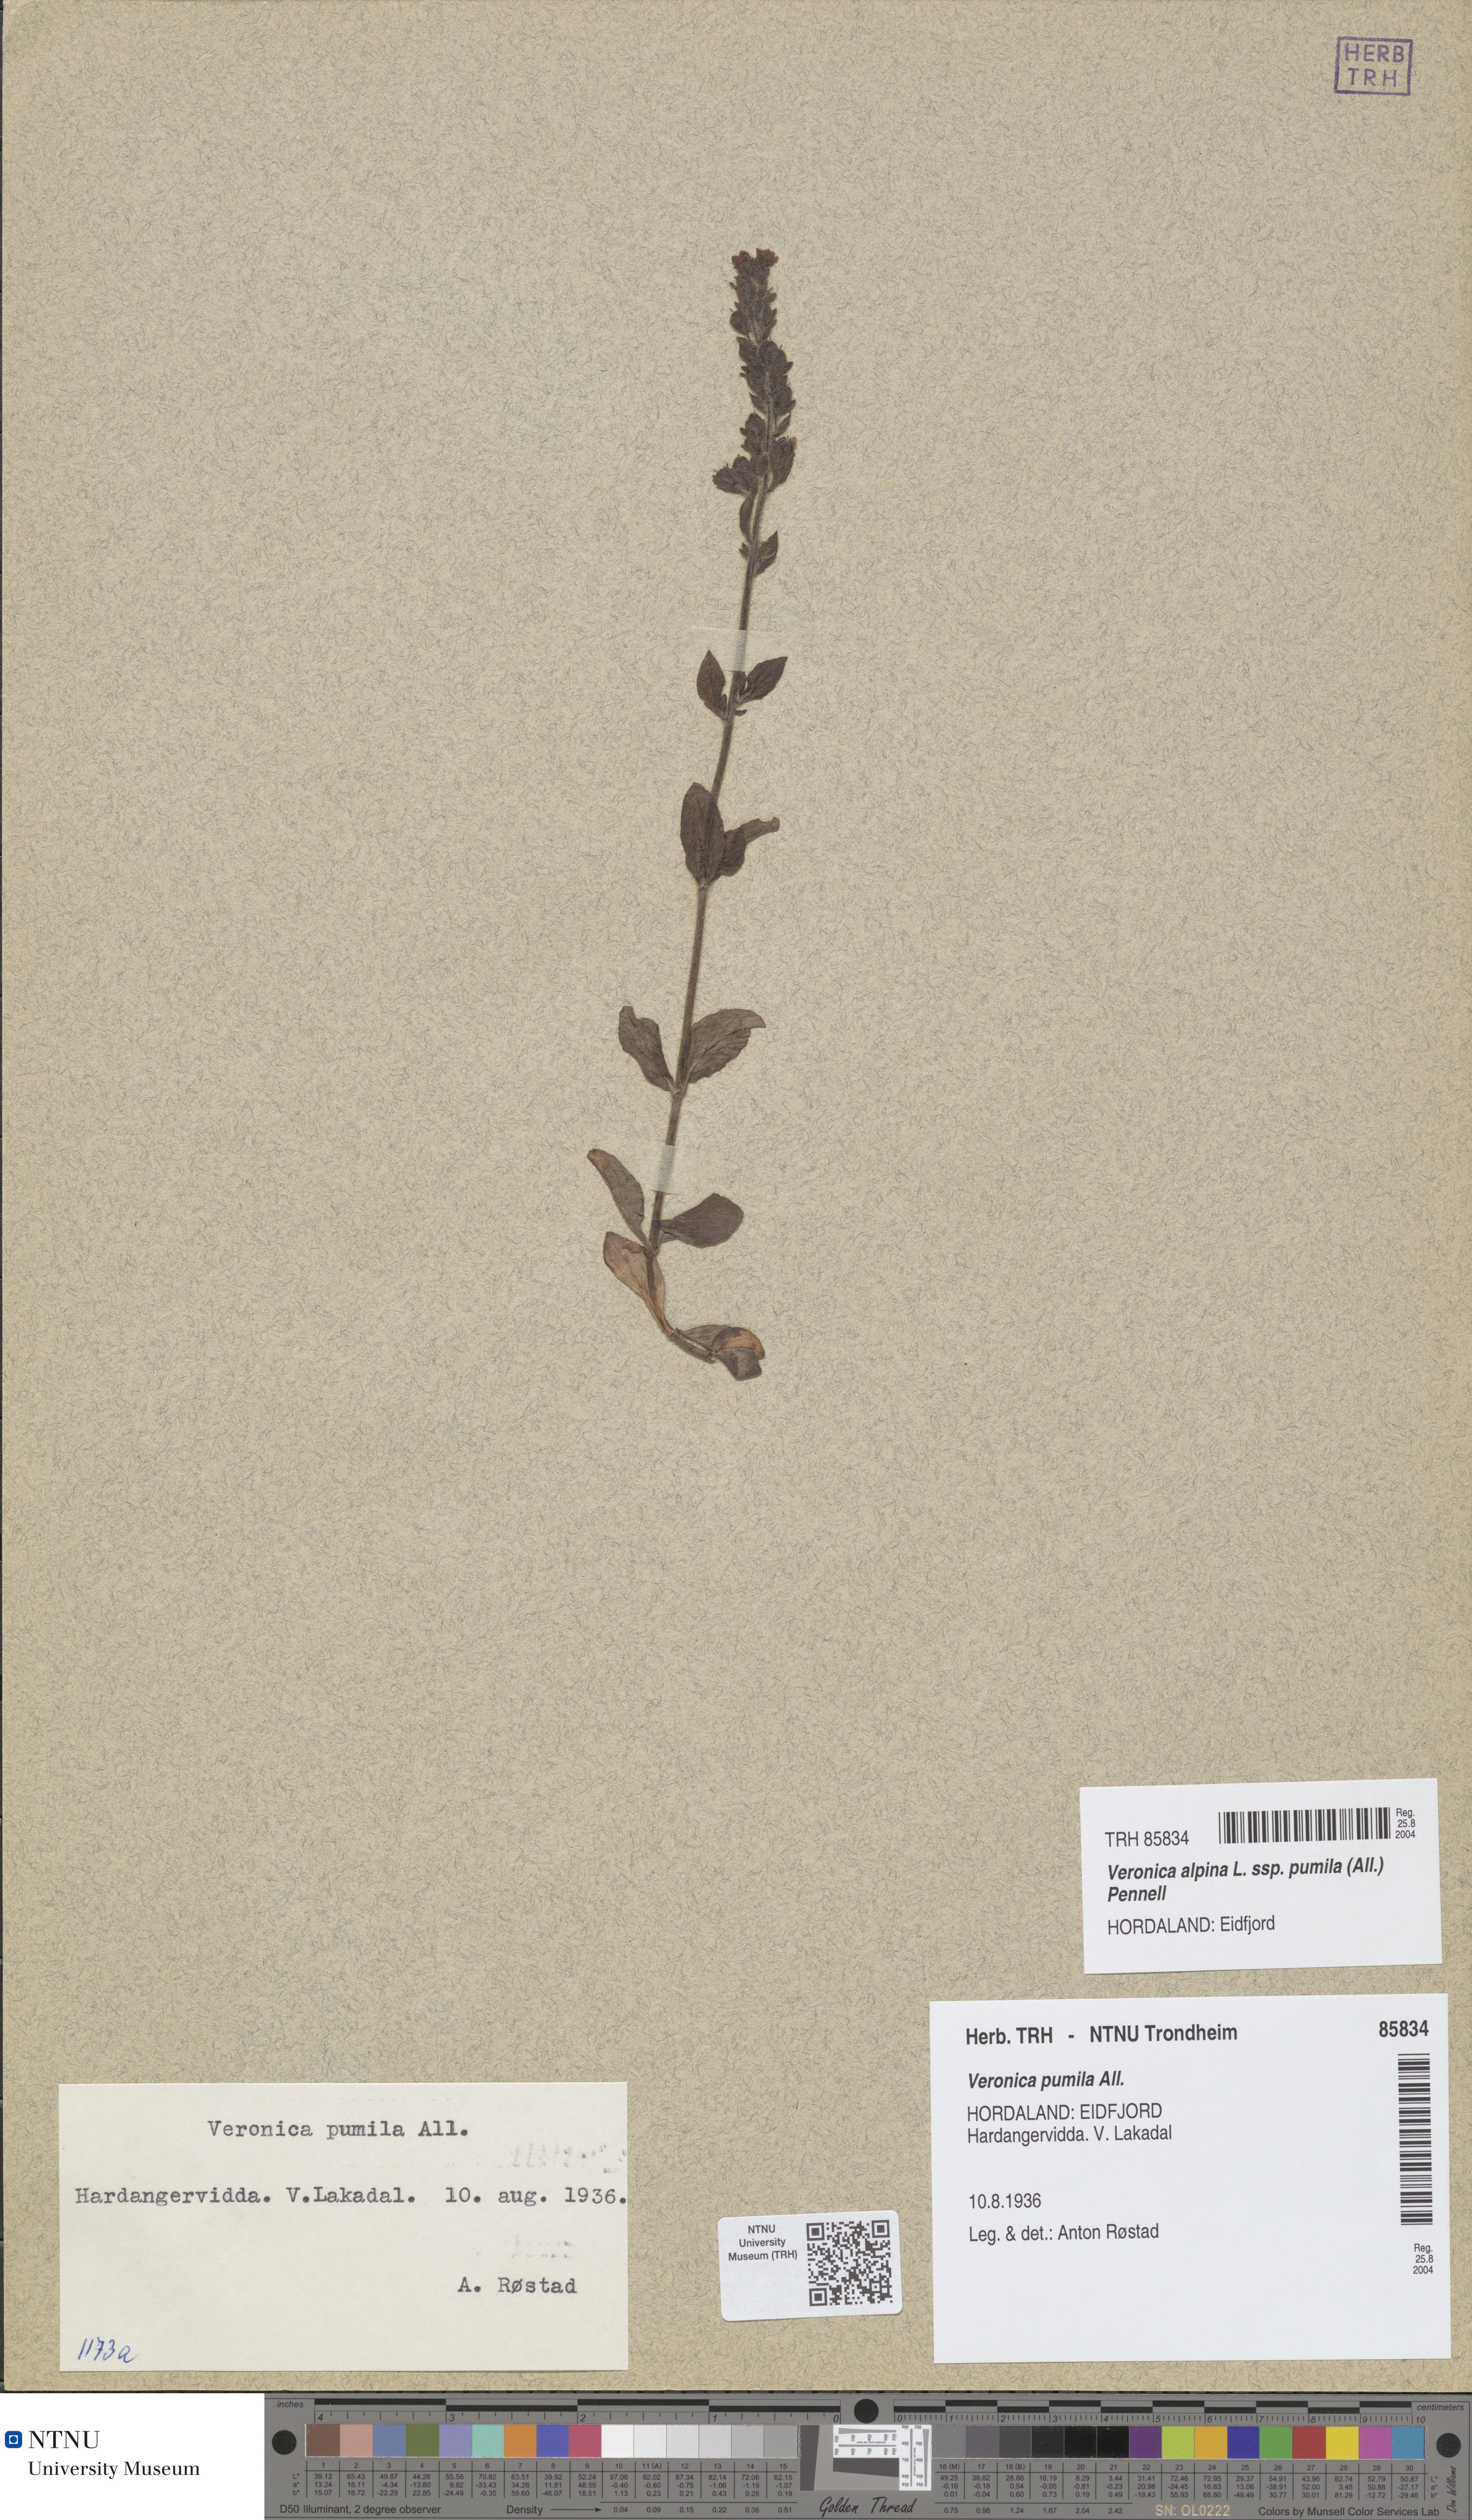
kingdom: Plantae
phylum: Tracheophyta
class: Magnoliopsida
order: Lamiales
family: Plantaginaceae
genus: Veronica
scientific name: Veronica alpina
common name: Alpine speedwell
